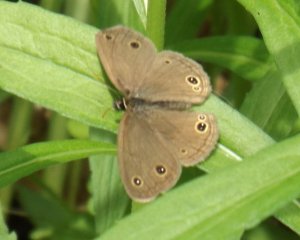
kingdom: Animalia
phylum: Arthropoda
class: Insecta
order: Lepidoptera
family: Nymphalidae
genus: Euptychia
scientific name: Euptychia cymela
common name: Little Wood Satyr
